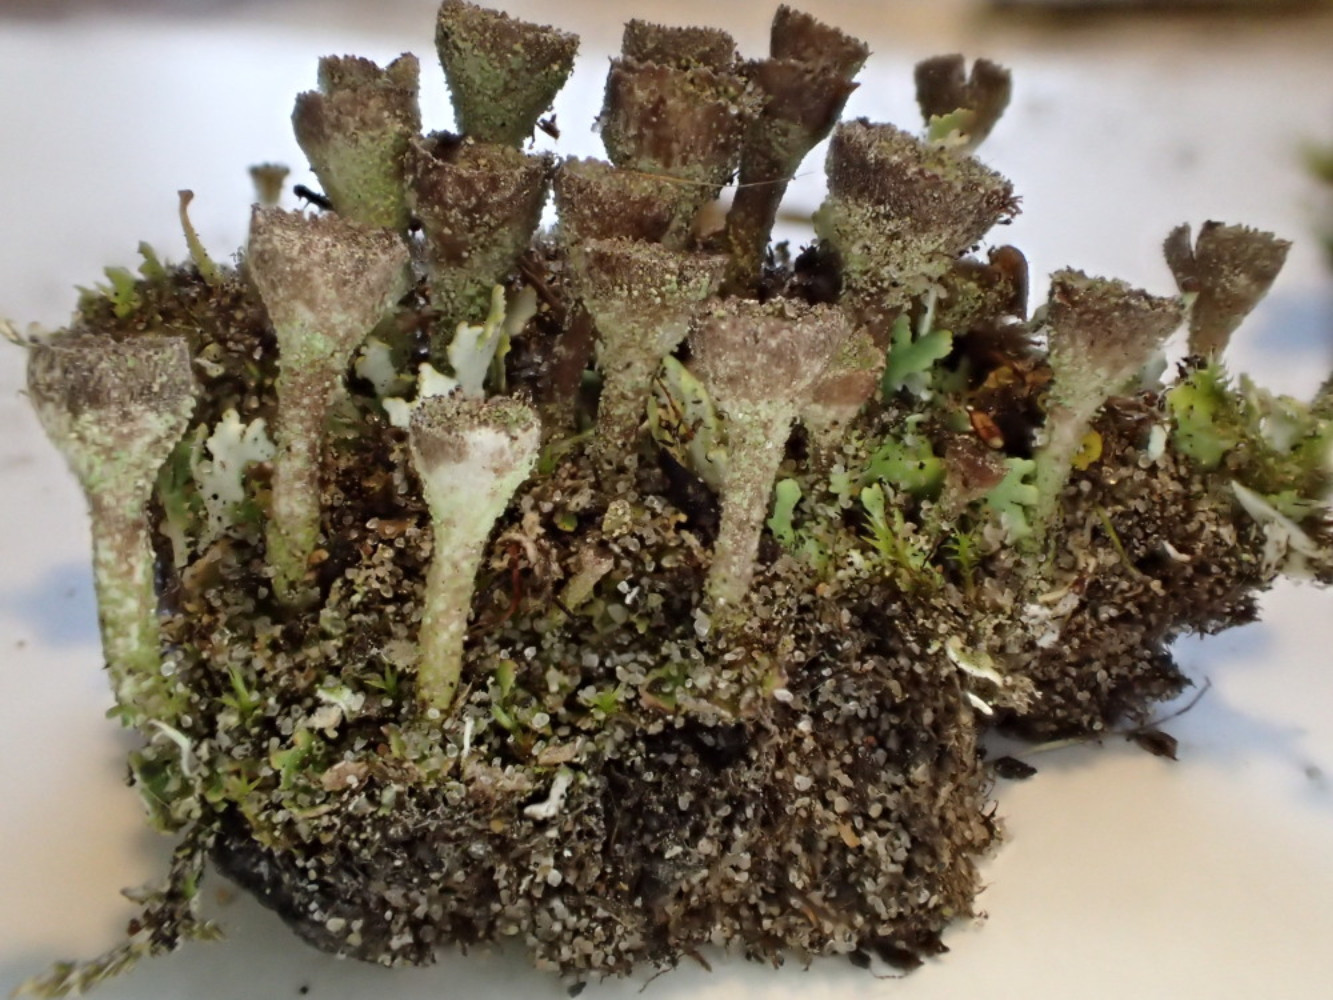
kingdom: Fungi
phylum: Ascomycota
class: Lecanoromycetes
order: Lecanorales
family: Cladoniaceae
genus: Cladonia
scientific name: Cladonia merochlorophaea
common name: mørk bægerlav
